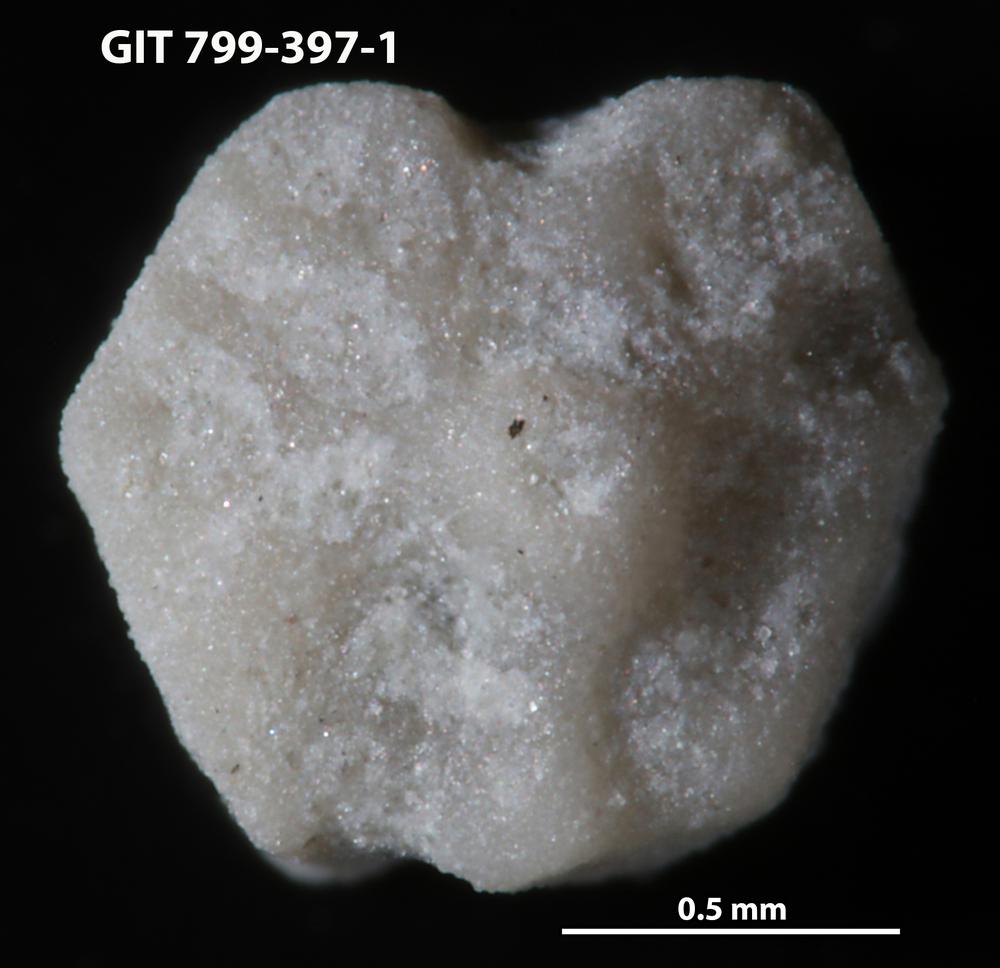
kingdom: Animalia
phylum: Echinodermata
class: Echinoidea
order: Bothriocidaroida
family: Bothriocidaridae
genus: Bothriocidaris
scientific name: Bothriocidaris
